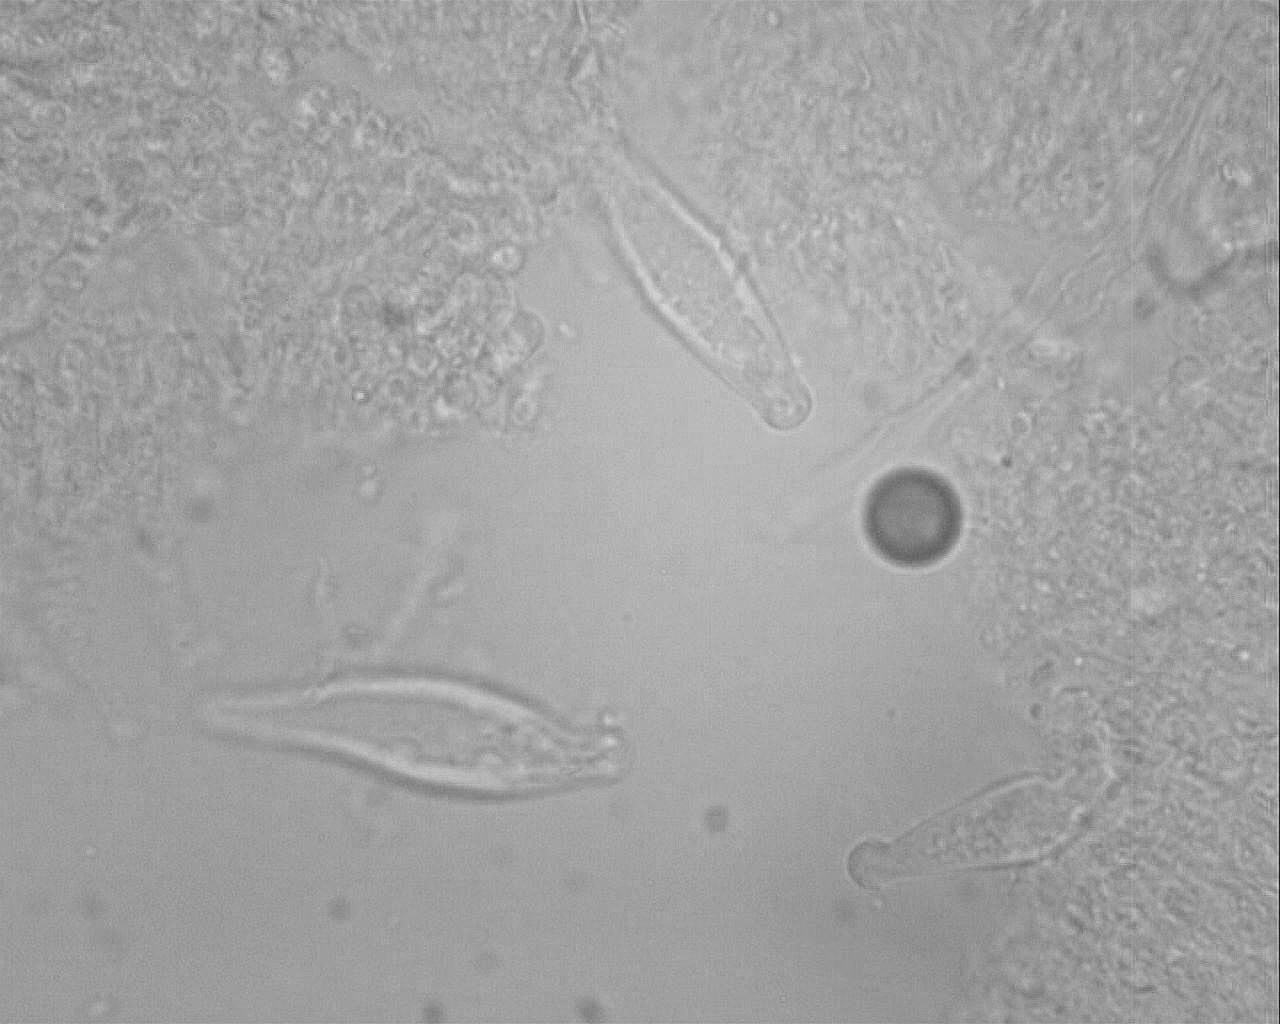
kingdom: Fungi
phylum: Basidiomycota
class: Agaricomycetes
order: Agaricales
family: Physalacriaceae
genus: Strobilurus
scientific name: Strobilurus esculentus
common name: gran-koglehat
